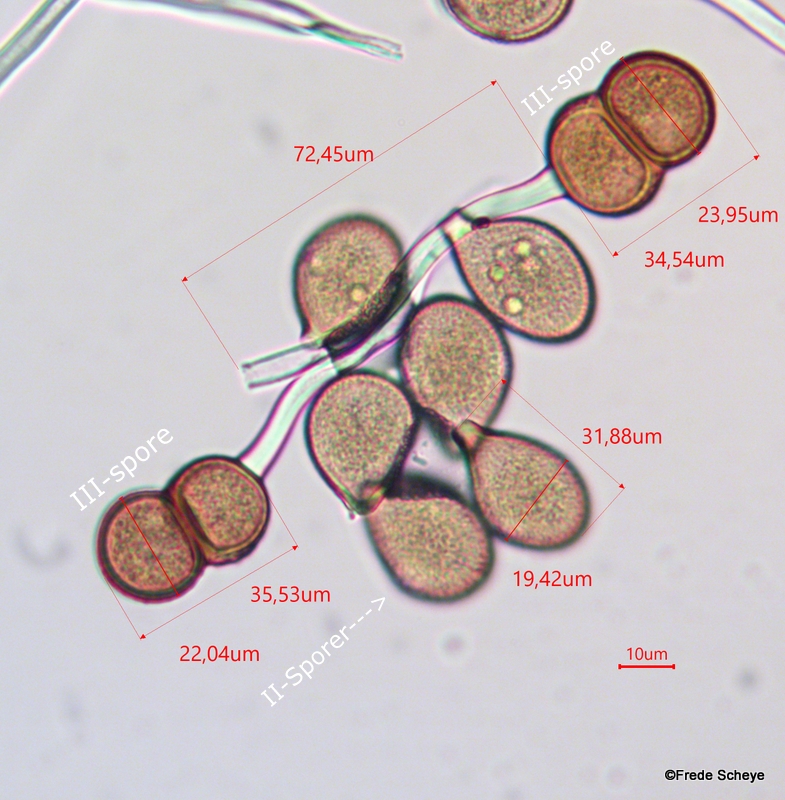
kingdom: Fungi
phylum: Basidiomycota
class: Pucciniomycetes
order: Pucciniales
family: Pucciniaceae
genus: Cumminsiella
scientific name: Cumminsiella mirabilissima
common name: mahonierust
